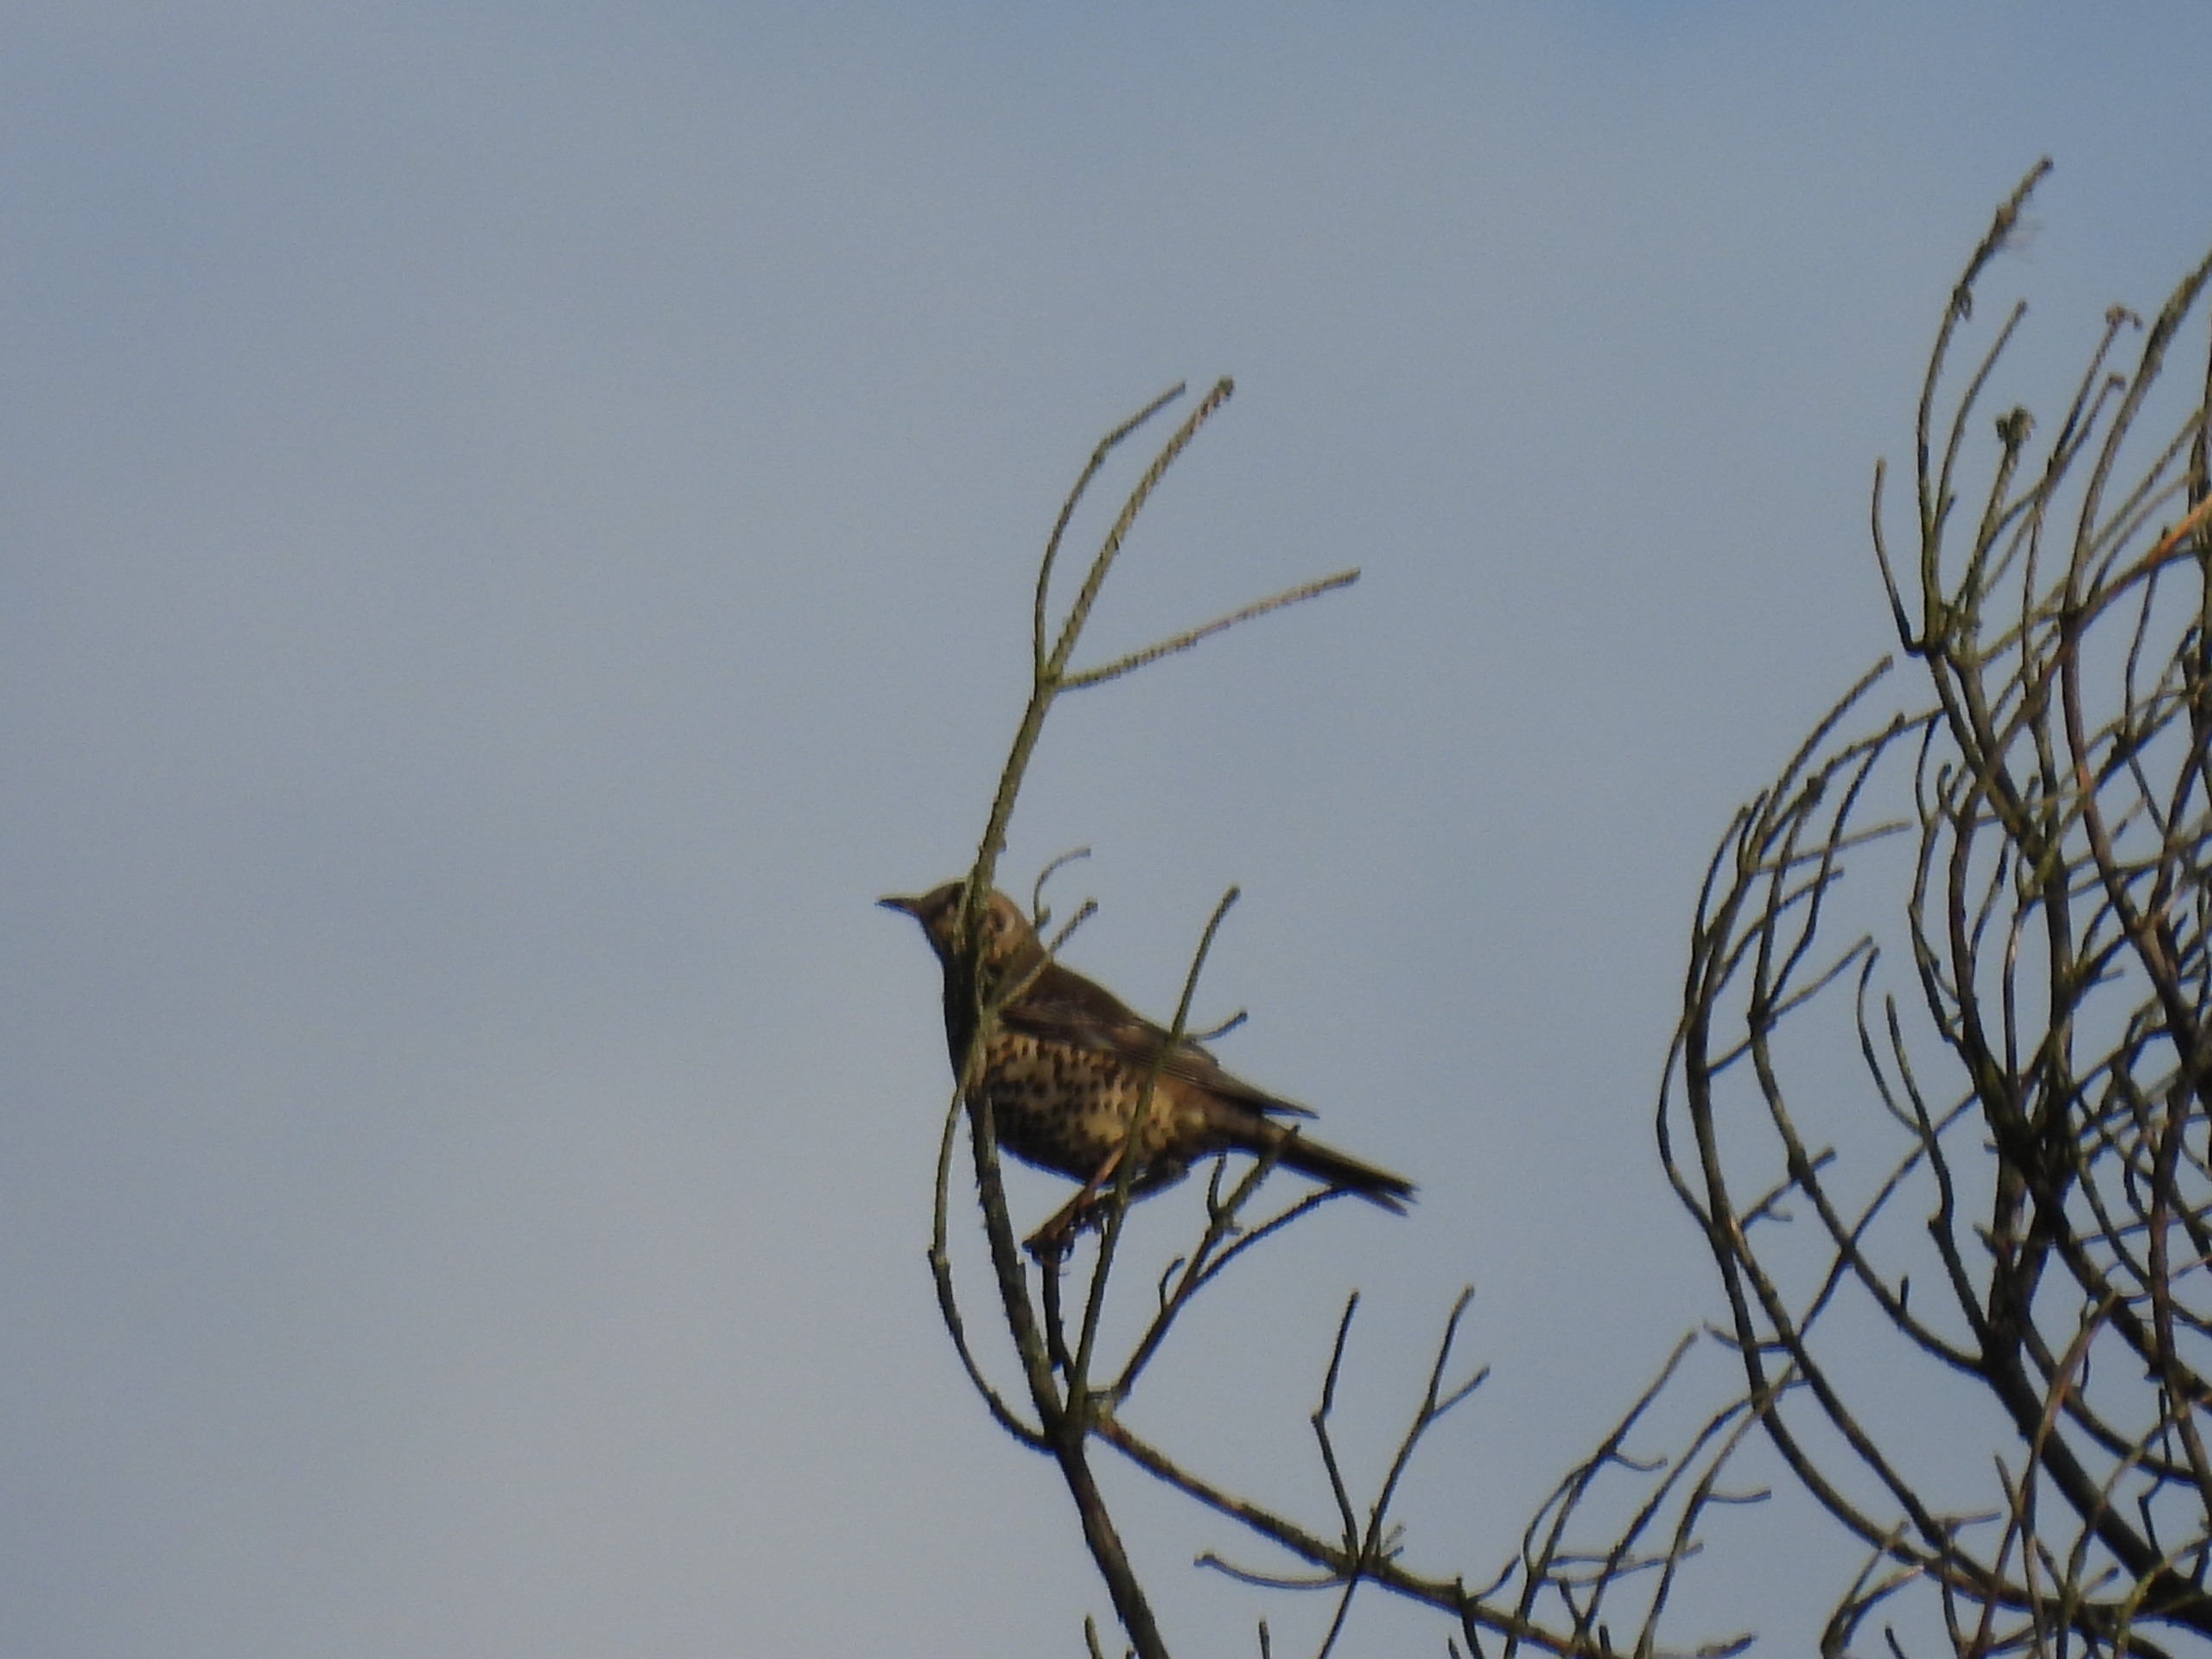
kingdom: Animalia
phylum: Chordata
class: Aves
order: Passeriformes
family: Turdidae
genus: Turdus
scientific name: Turdus viscivorus
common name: Misteldrossel
